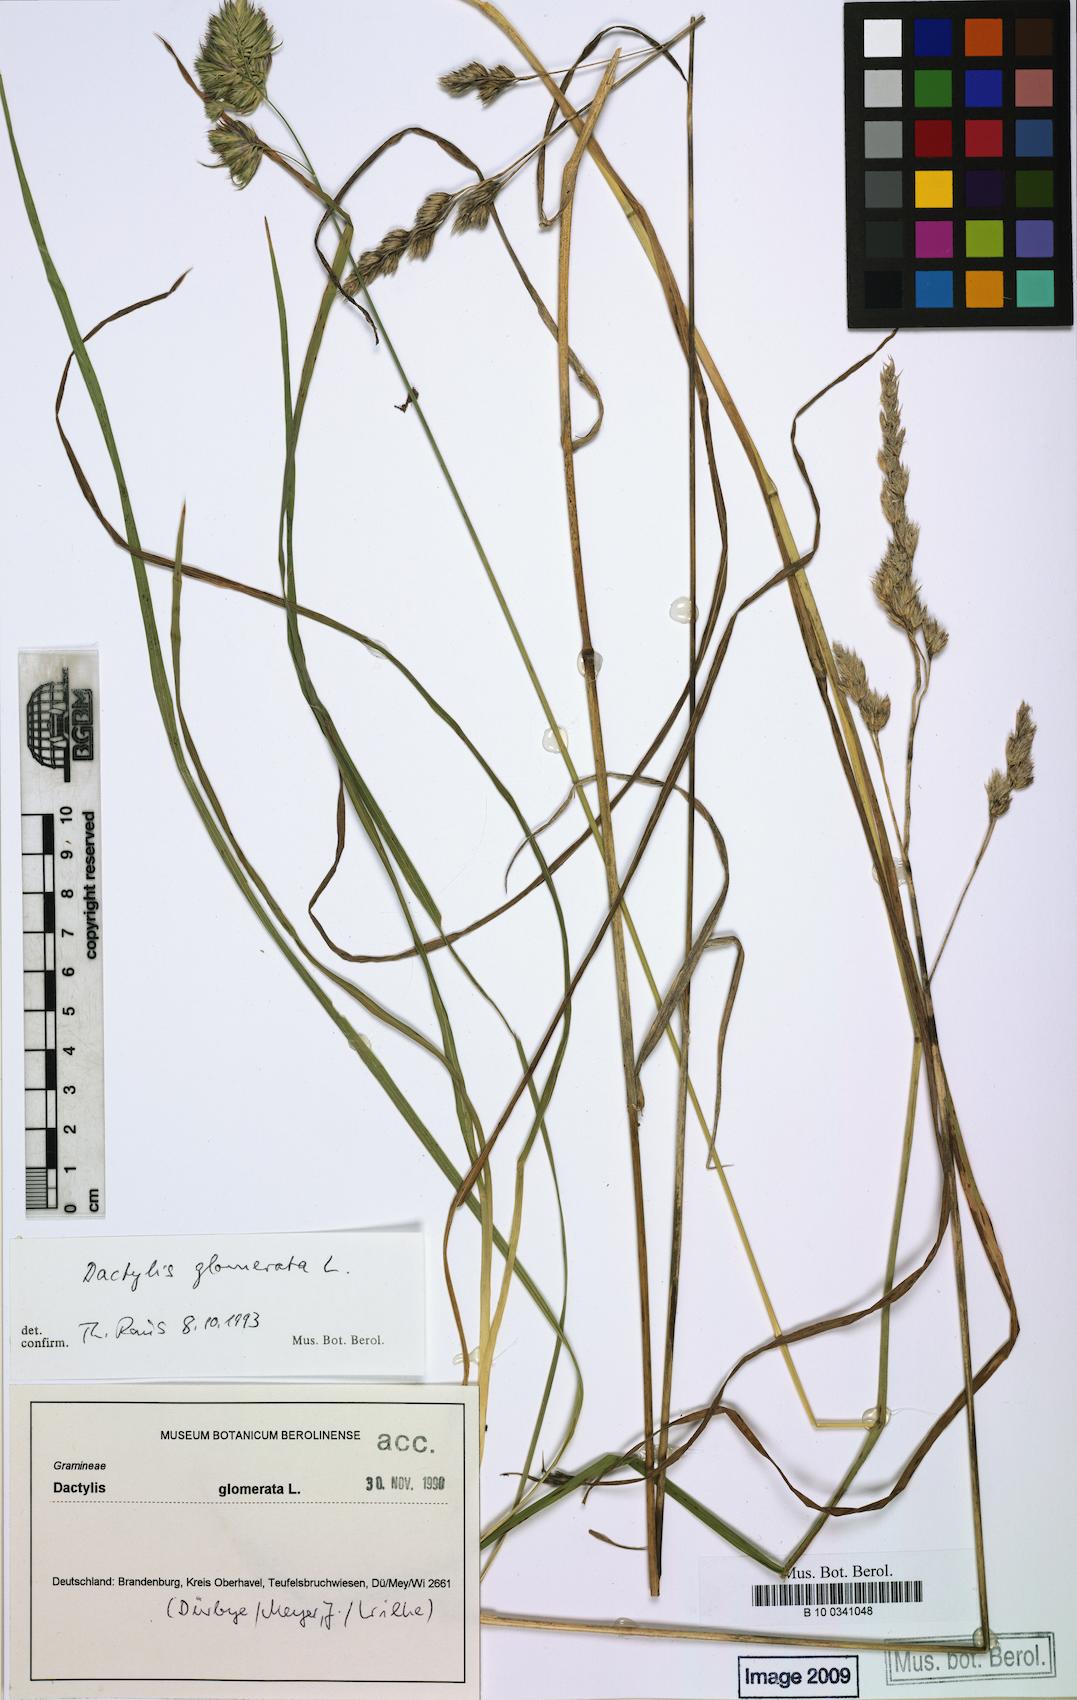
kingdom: Plantae
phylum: Tracheophyta
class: Liliopsida
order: Poales
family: Poaceae
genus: Dactylis
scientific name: Dactylis glomerata
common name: Orchardgrass
